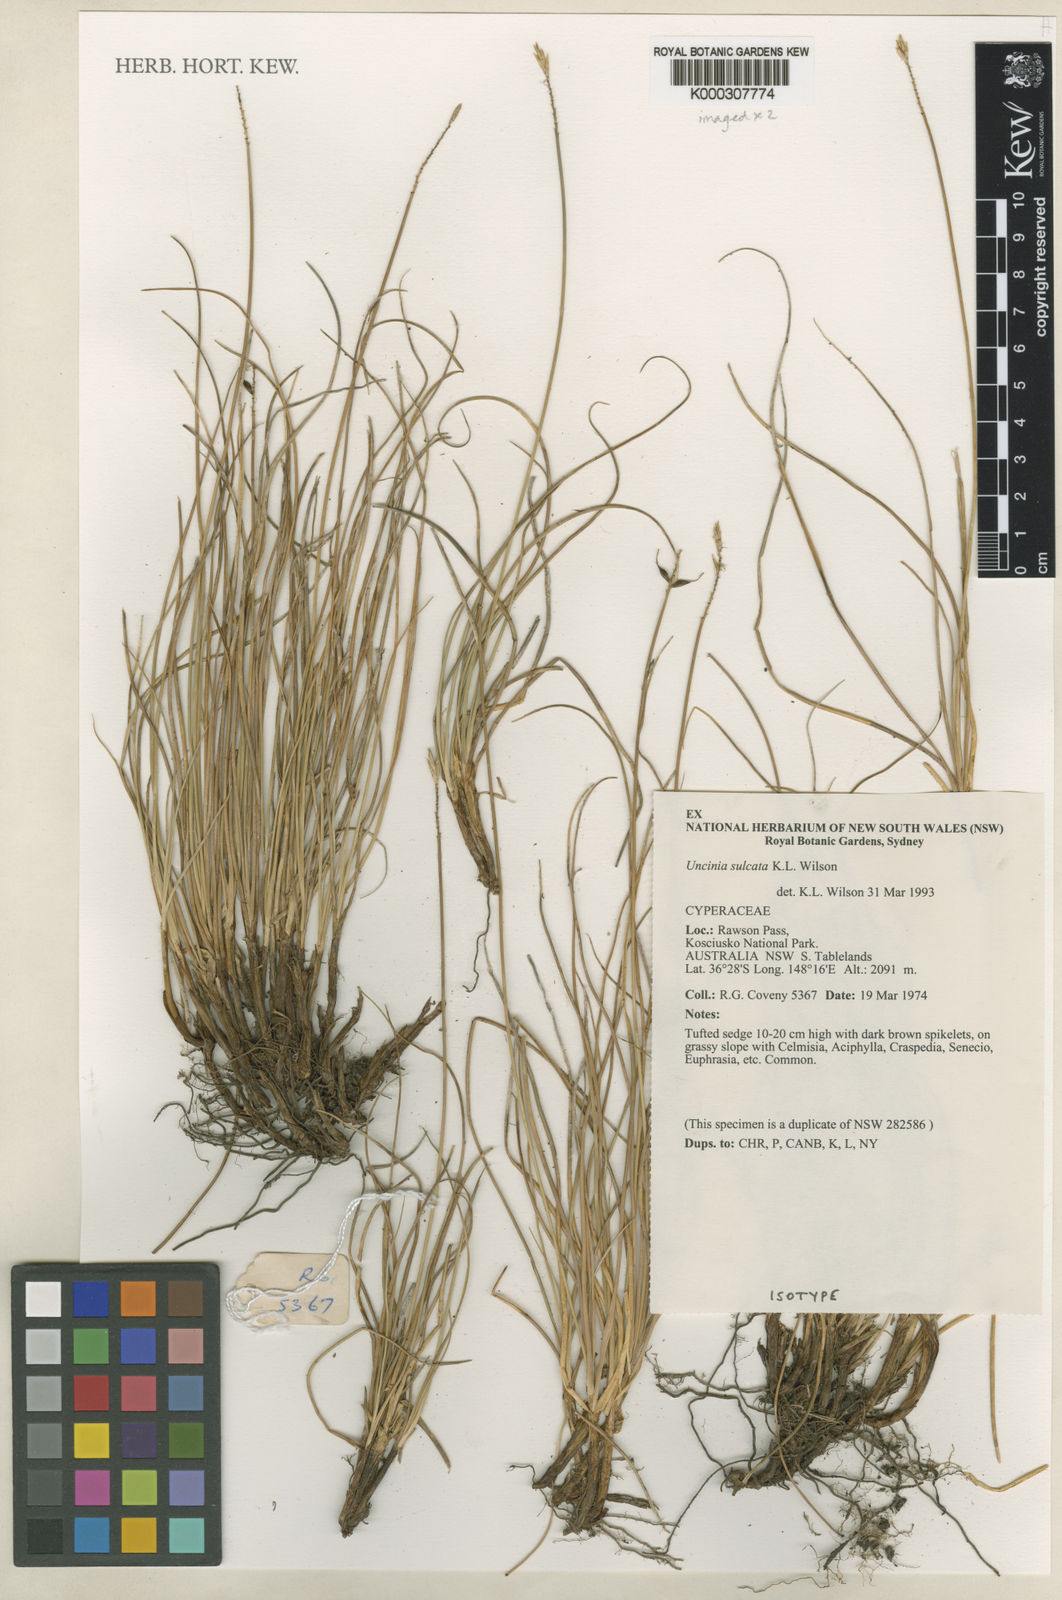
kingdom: Plantae
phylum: Tracheophyta
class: Liliopsida
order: Poales
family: Cyperaceae
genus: Carex
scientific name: Carex austrosulcata
